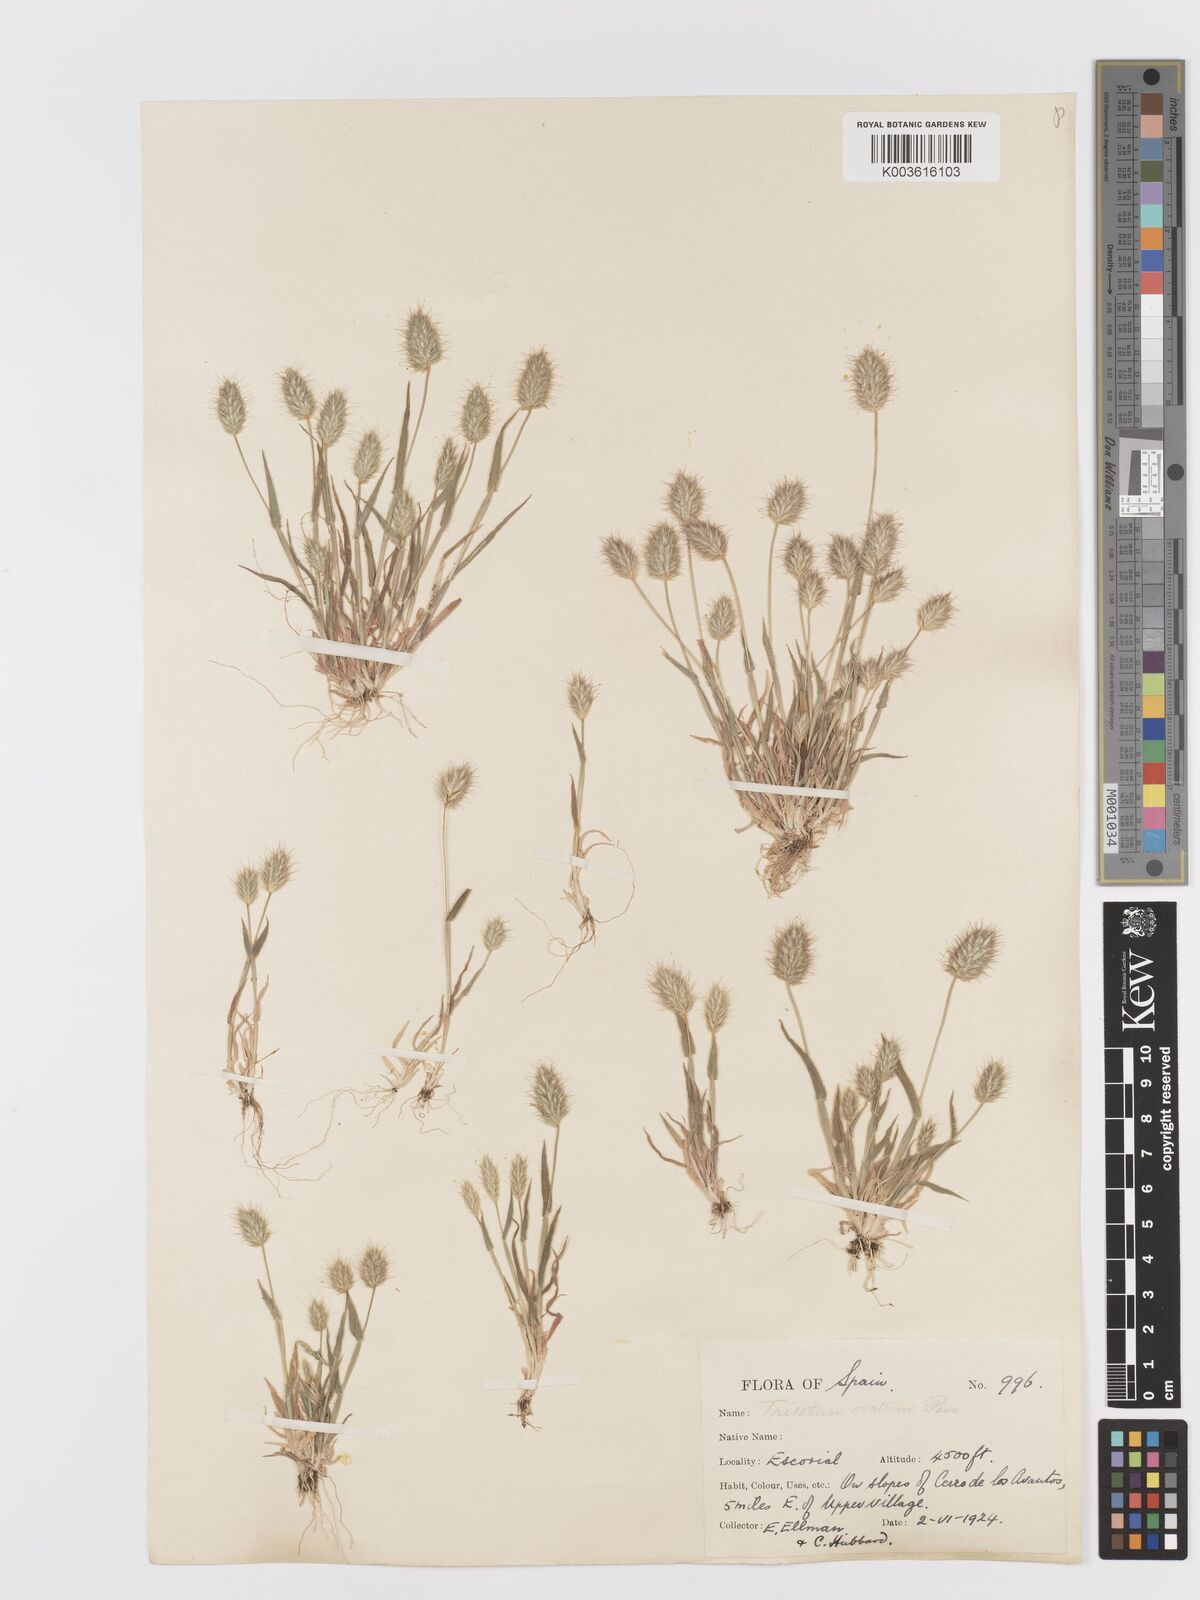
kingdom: Plantae
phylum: Tracheophyta
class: Liliopsida
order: Poales
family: Poaceae
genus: Trisetaria
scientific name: Trisetaria ovata
